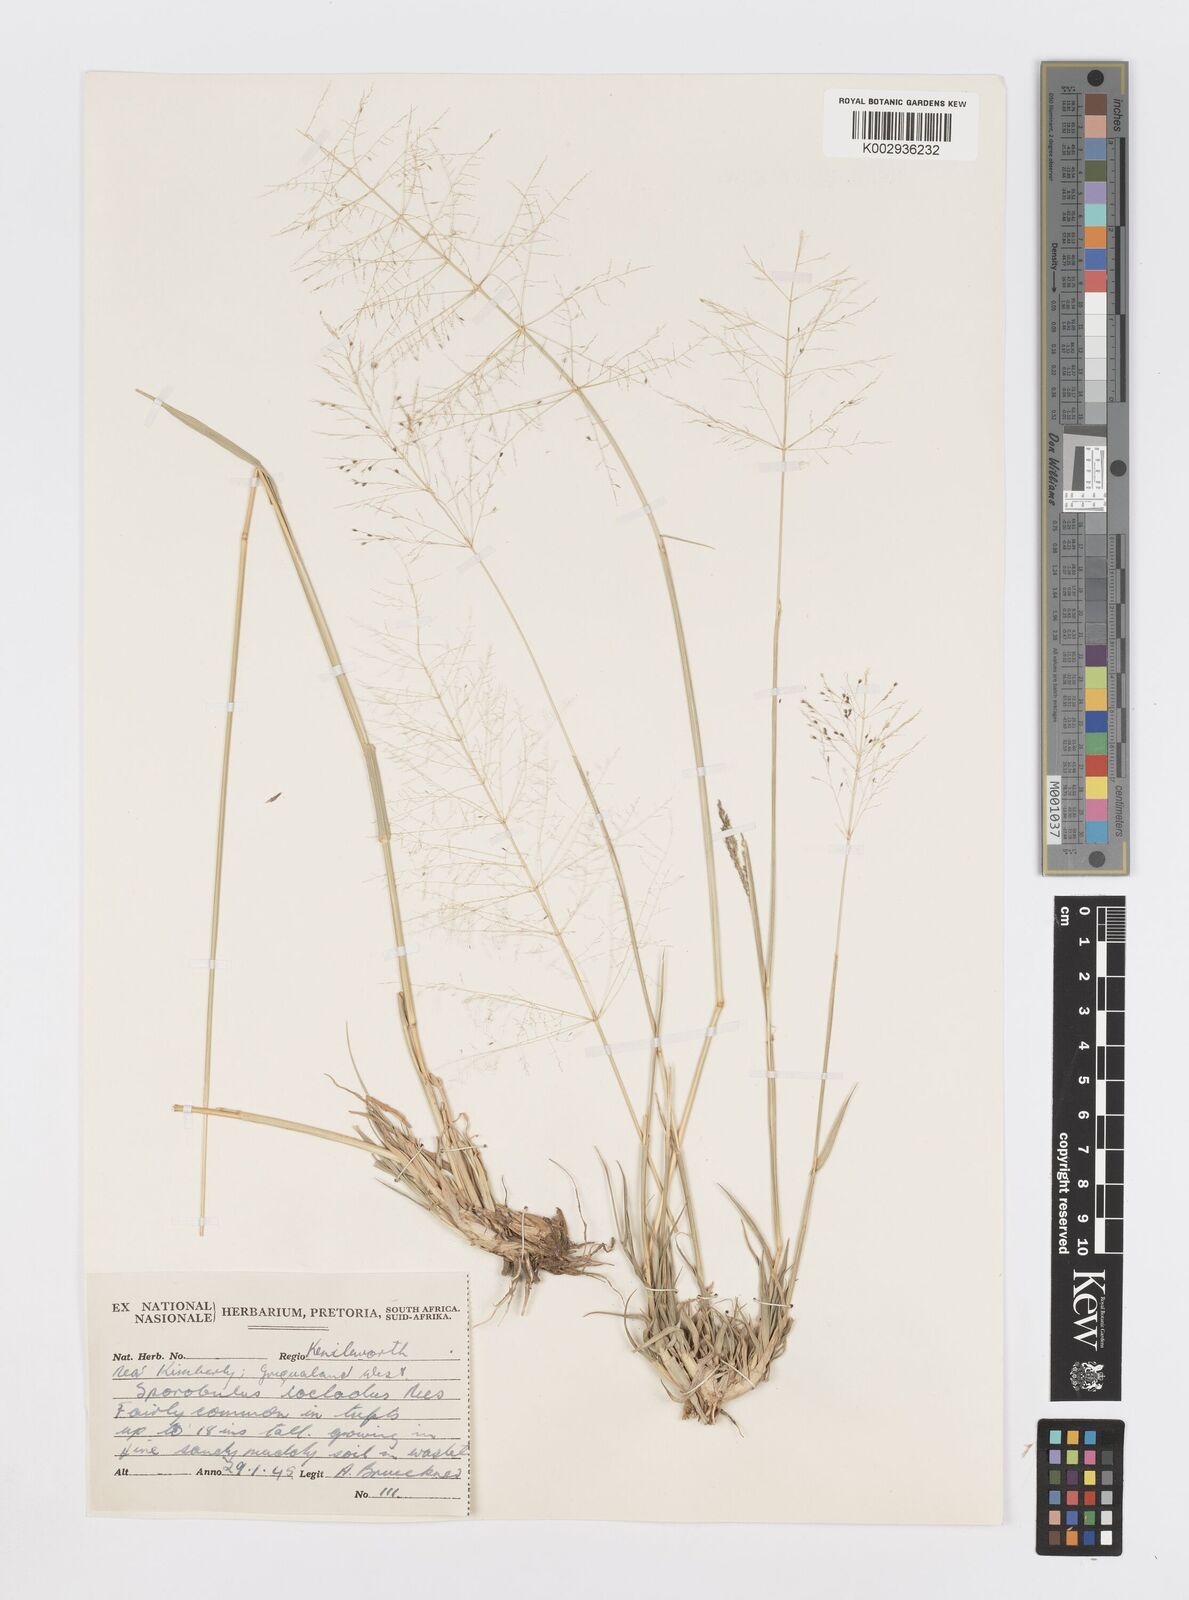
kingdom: Plantae
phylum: Tracheophyta
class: Liliopsida
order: Poales
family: Poaceae
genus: Sporobolus
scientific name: Sporobolus ioclados
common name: Pan dropseed
